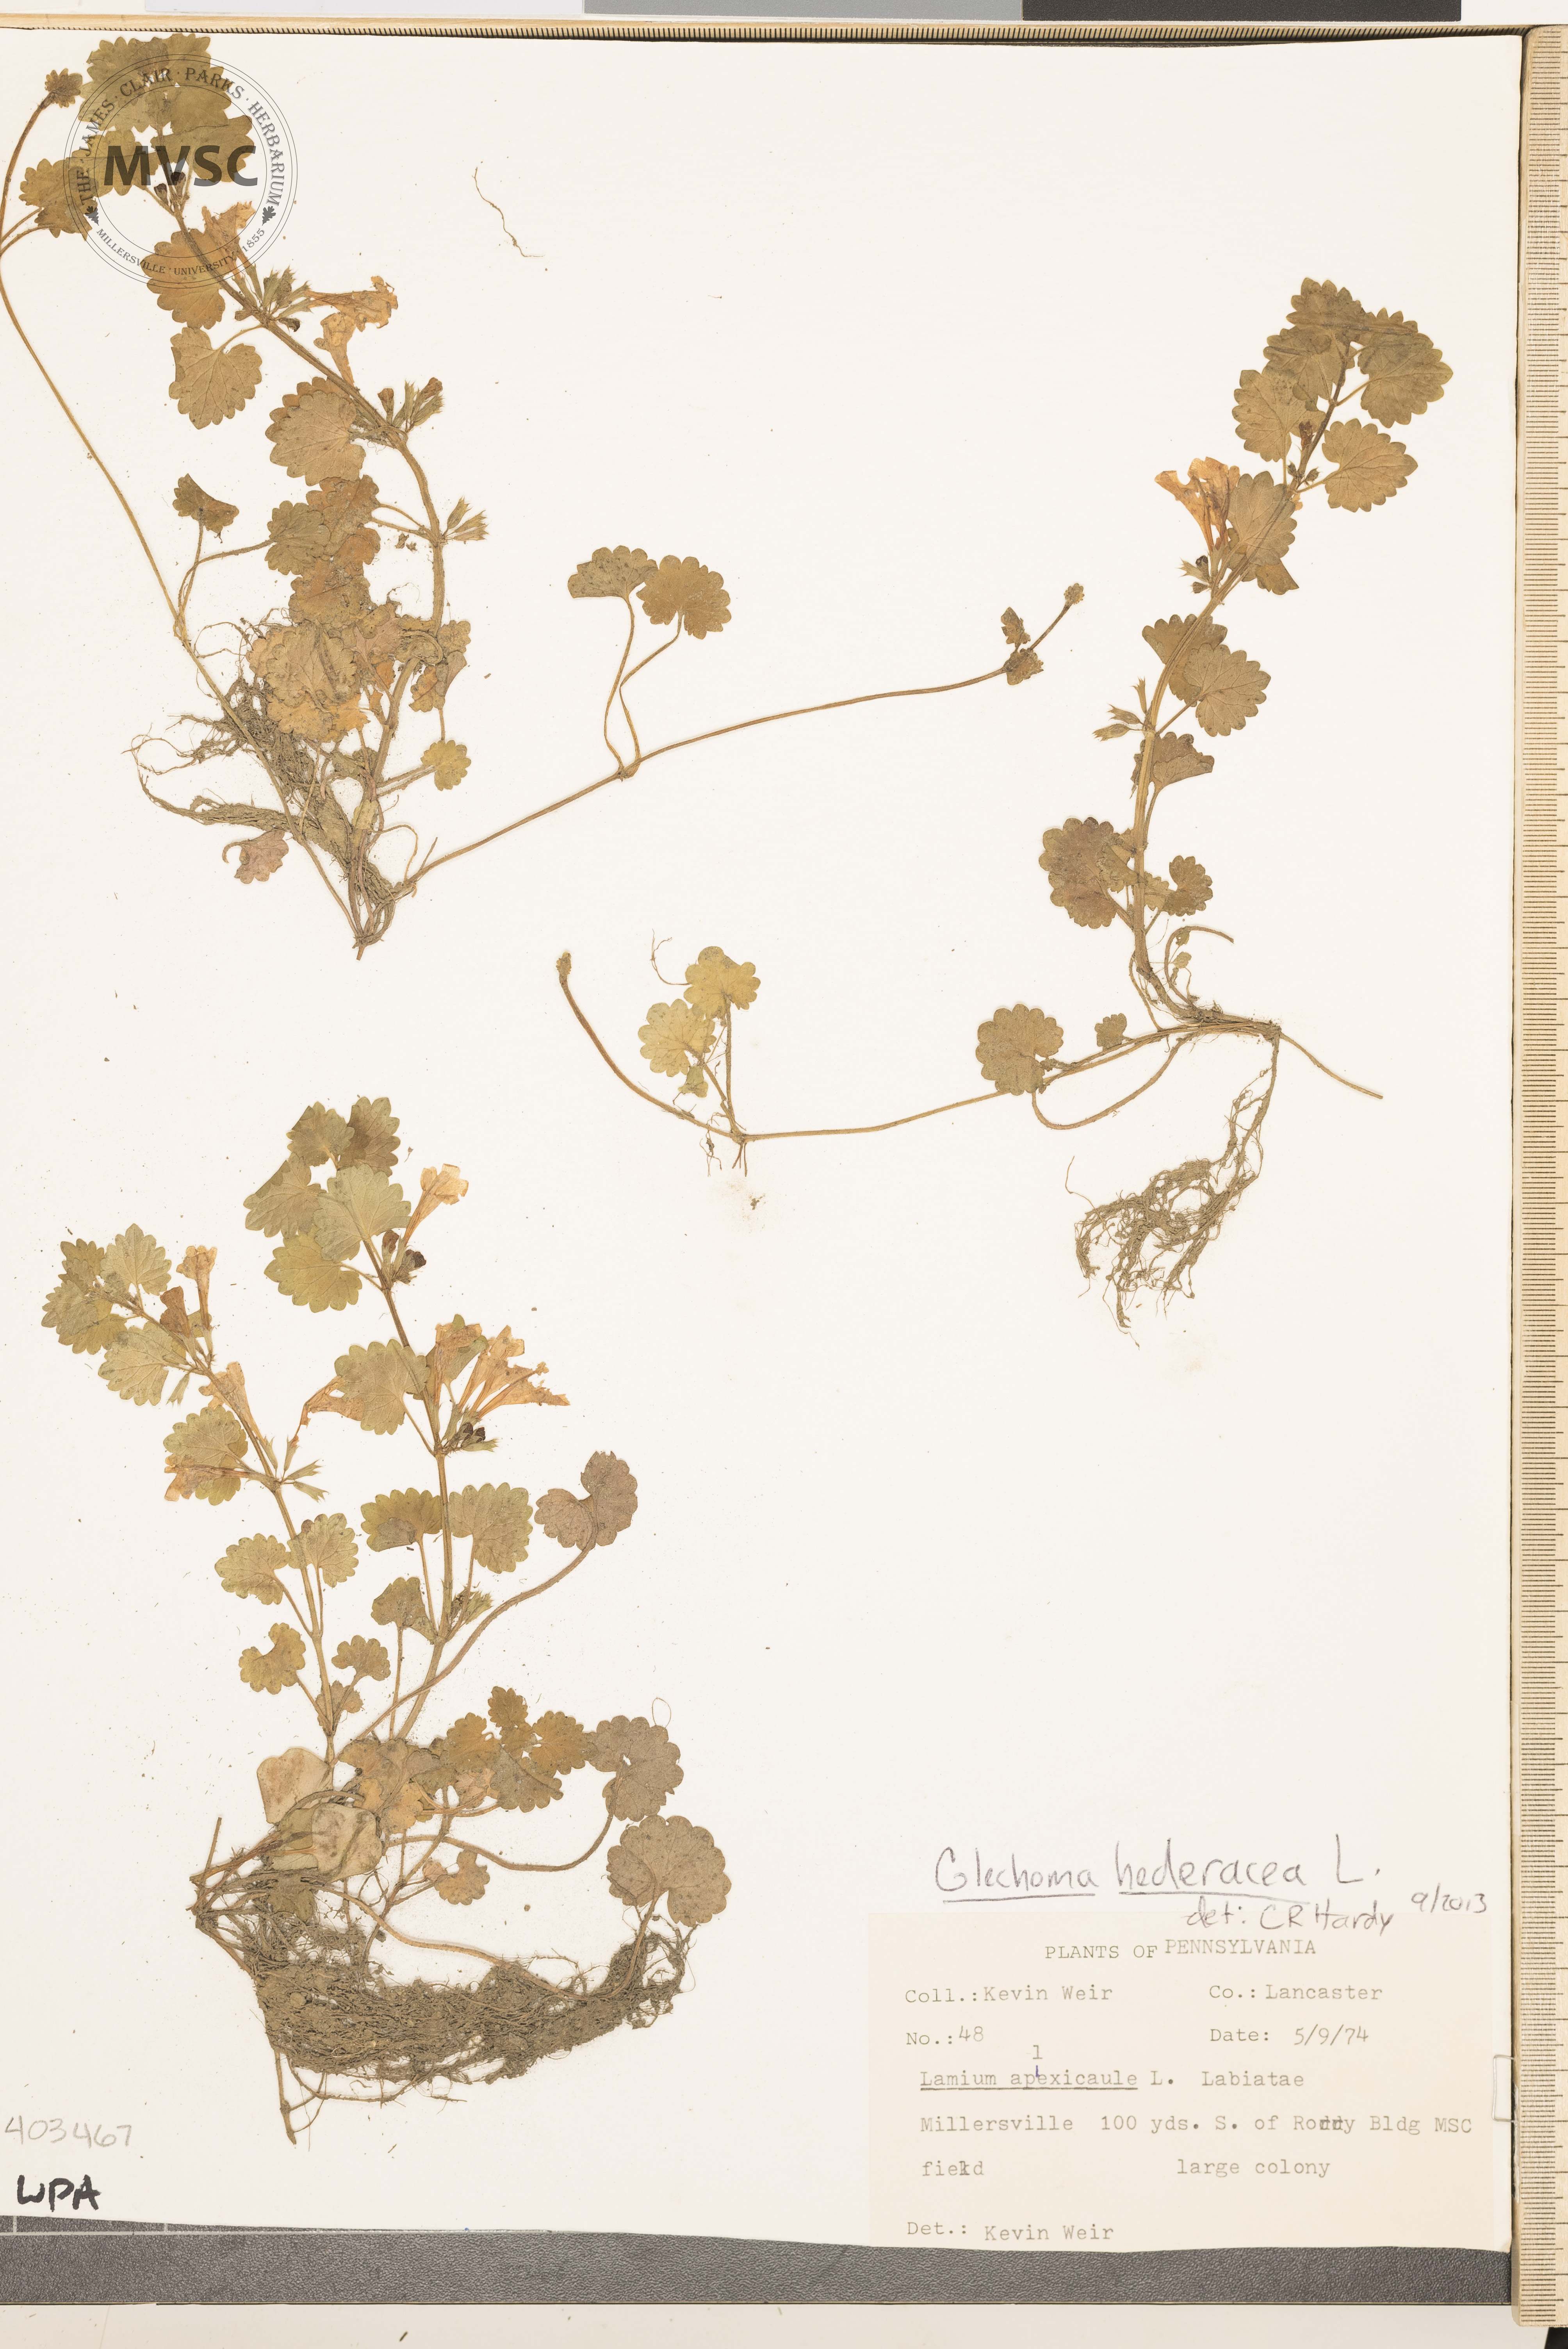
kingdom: Plantae
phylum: Tracheophyta
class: Magnoliopsida
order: Lamiales
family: Lamiaceae
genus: Glechoma
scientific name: Glechoma hederacea
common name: Ground-Ivy
